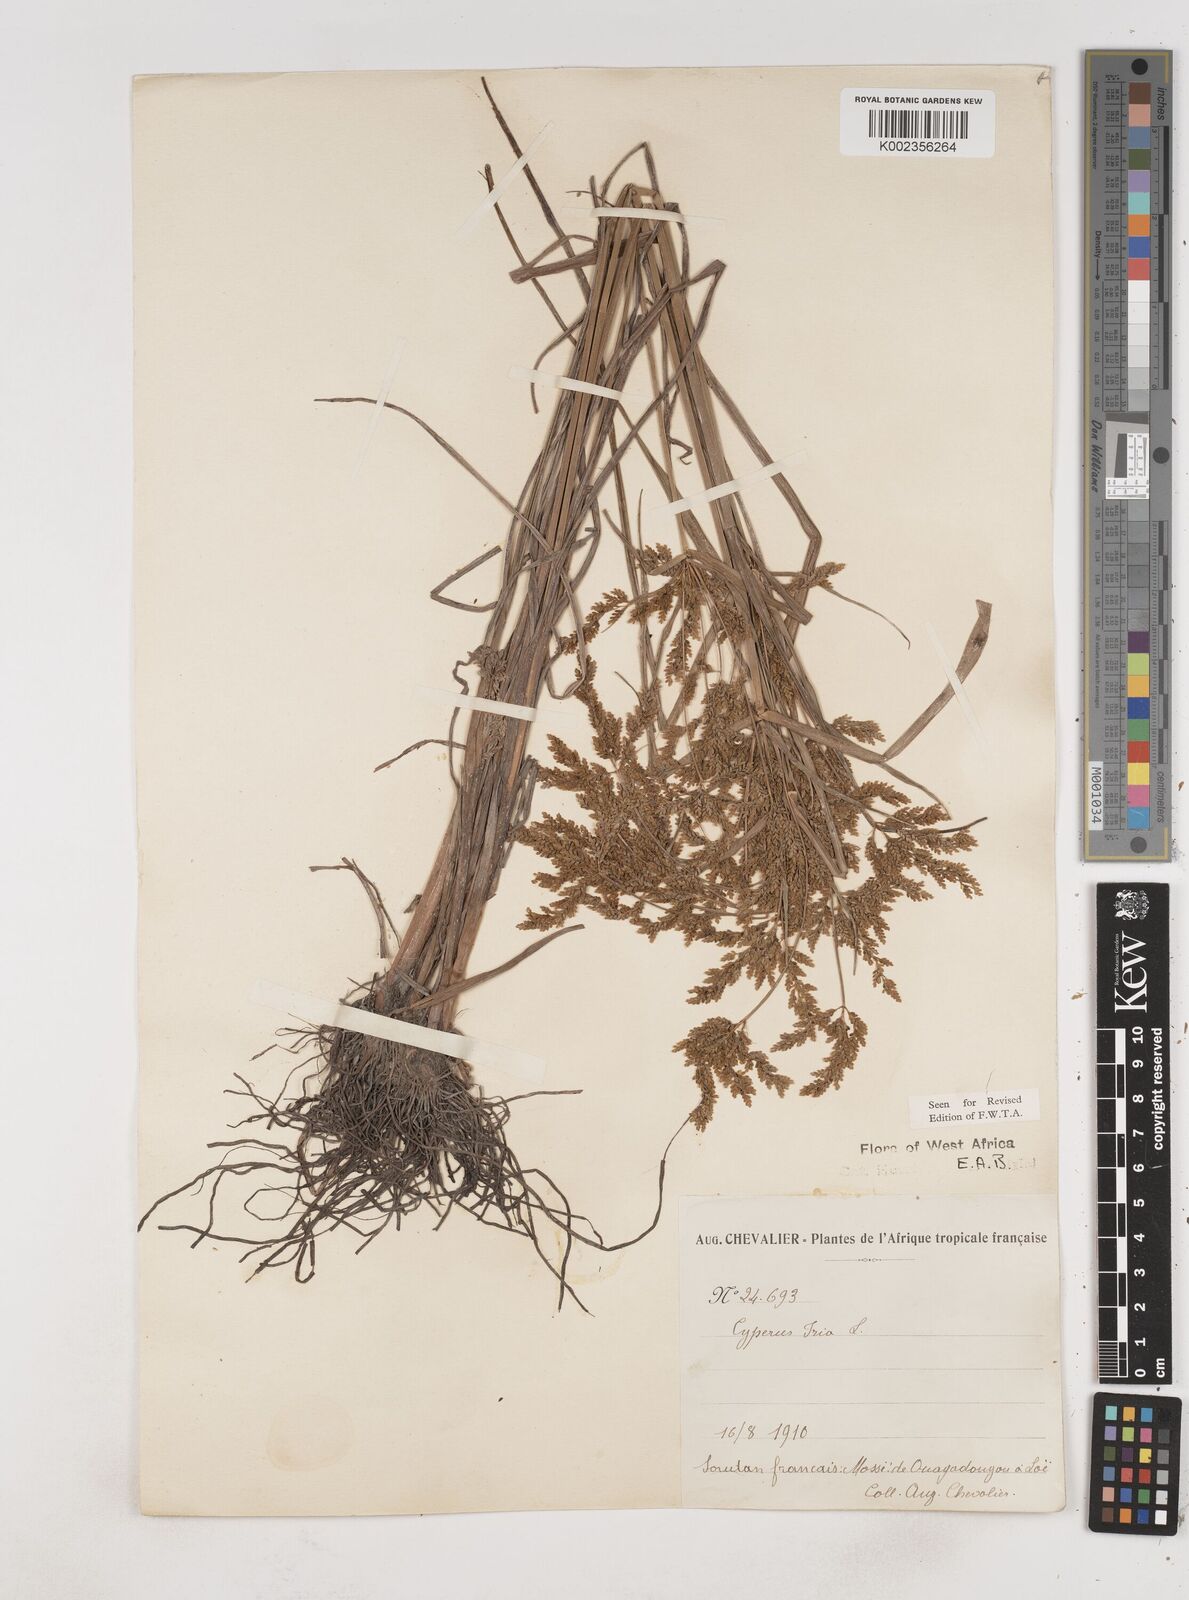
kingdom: Plantae
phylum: Tracheophyta
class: Liliopsida
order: Poales
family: Cyperaceae
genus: Cyperus
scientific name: Cyperus iria
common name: Ricefield flatsedge
